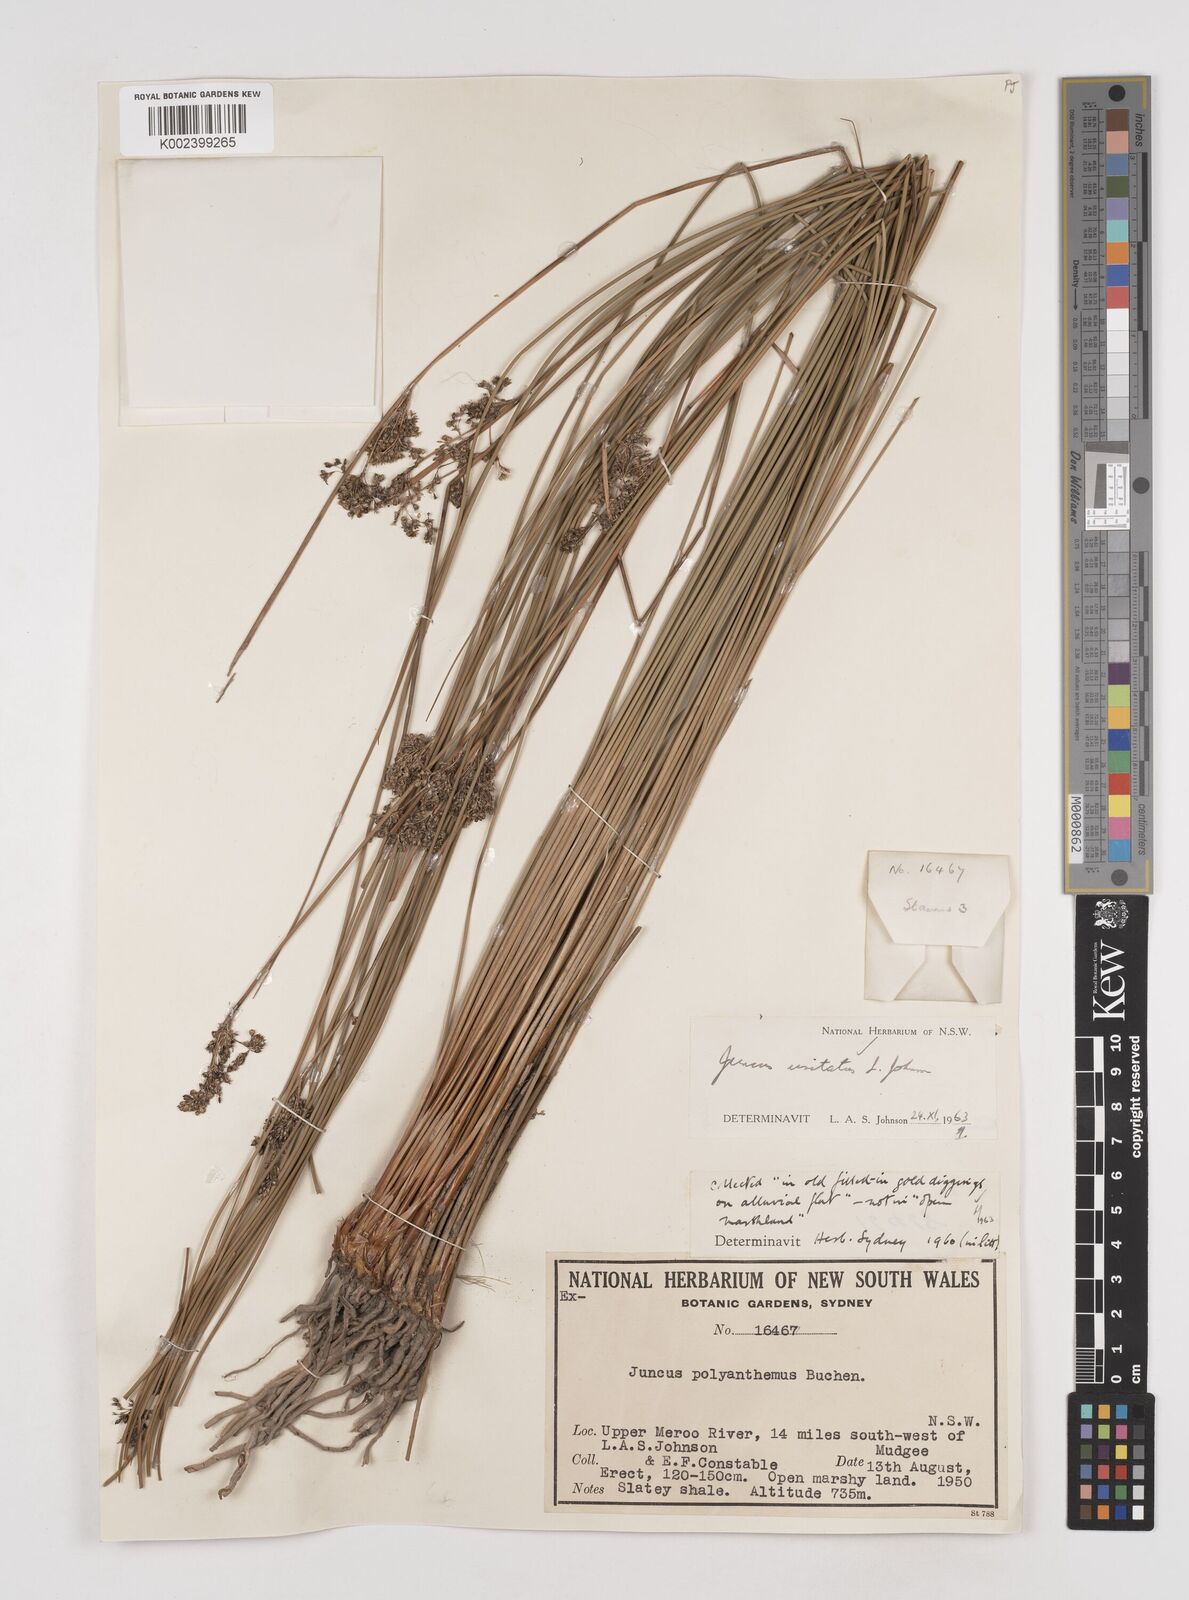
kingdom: Plantae
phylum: Tracheophyta
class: Liliopsida
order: Poales
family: Juncaceae
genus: Juncus
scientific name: Juncus usitatus
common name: Rush
